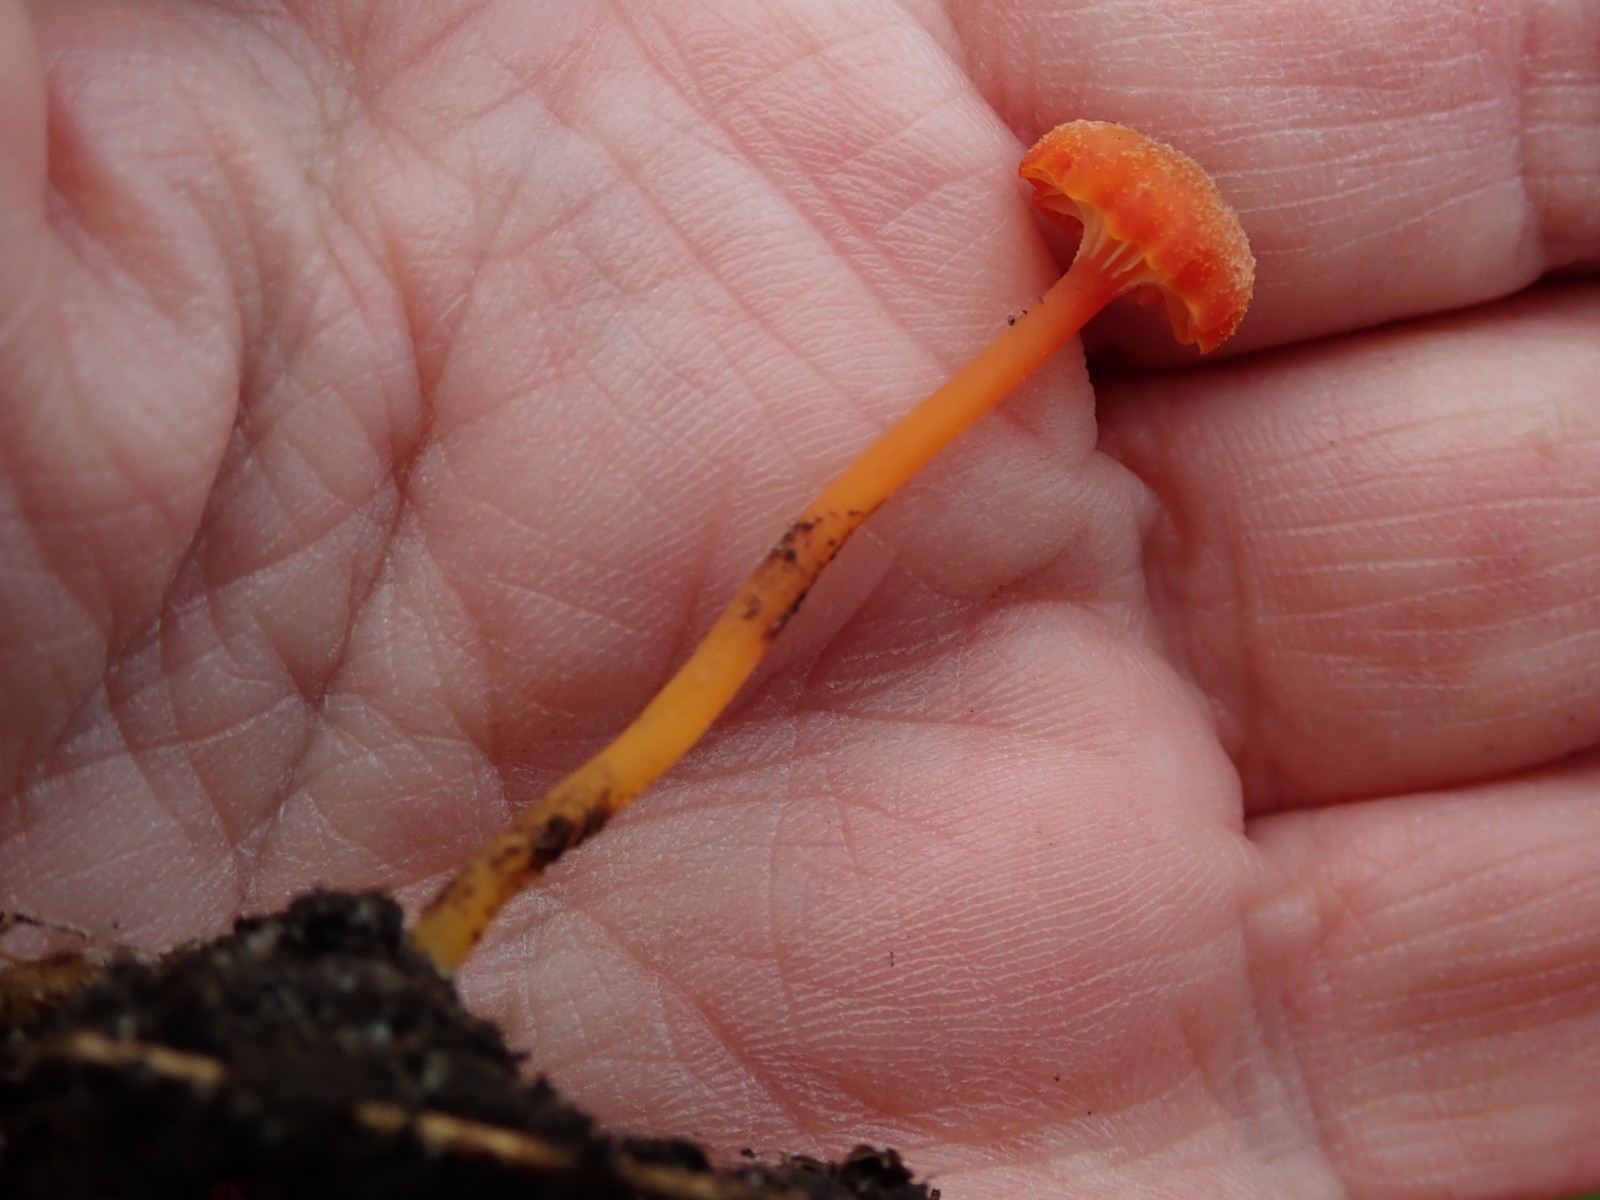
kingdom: Fungi
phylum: Basidiomycota
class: Agaricomycetes
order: Agaricales
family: Hygrophoraceae
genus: Hygrocybe
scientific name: Hygrocybe cantharellus
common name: kantarel-vokshat
